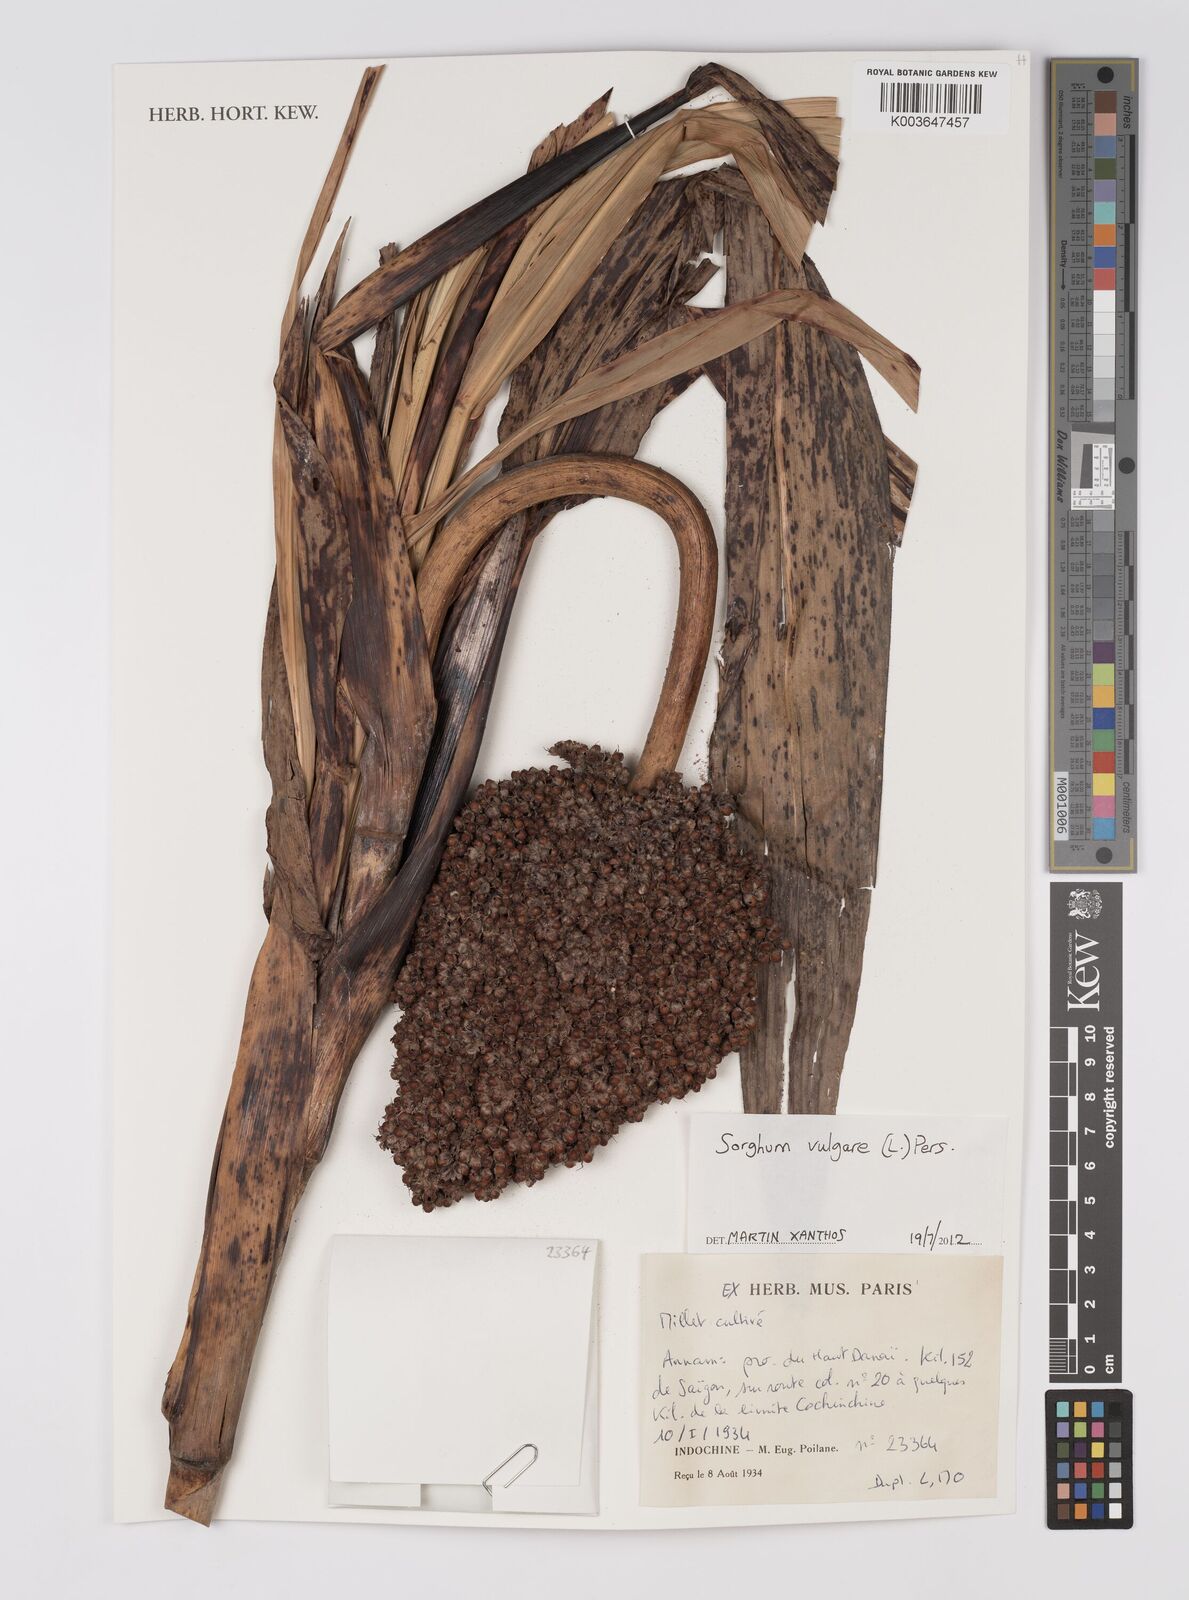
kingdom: Plantae
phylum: Tracheophyta
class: Liliopsida
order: Poales
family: Poaceae
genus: Hyparrhenia
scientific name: Hyparrhenia dichroa
